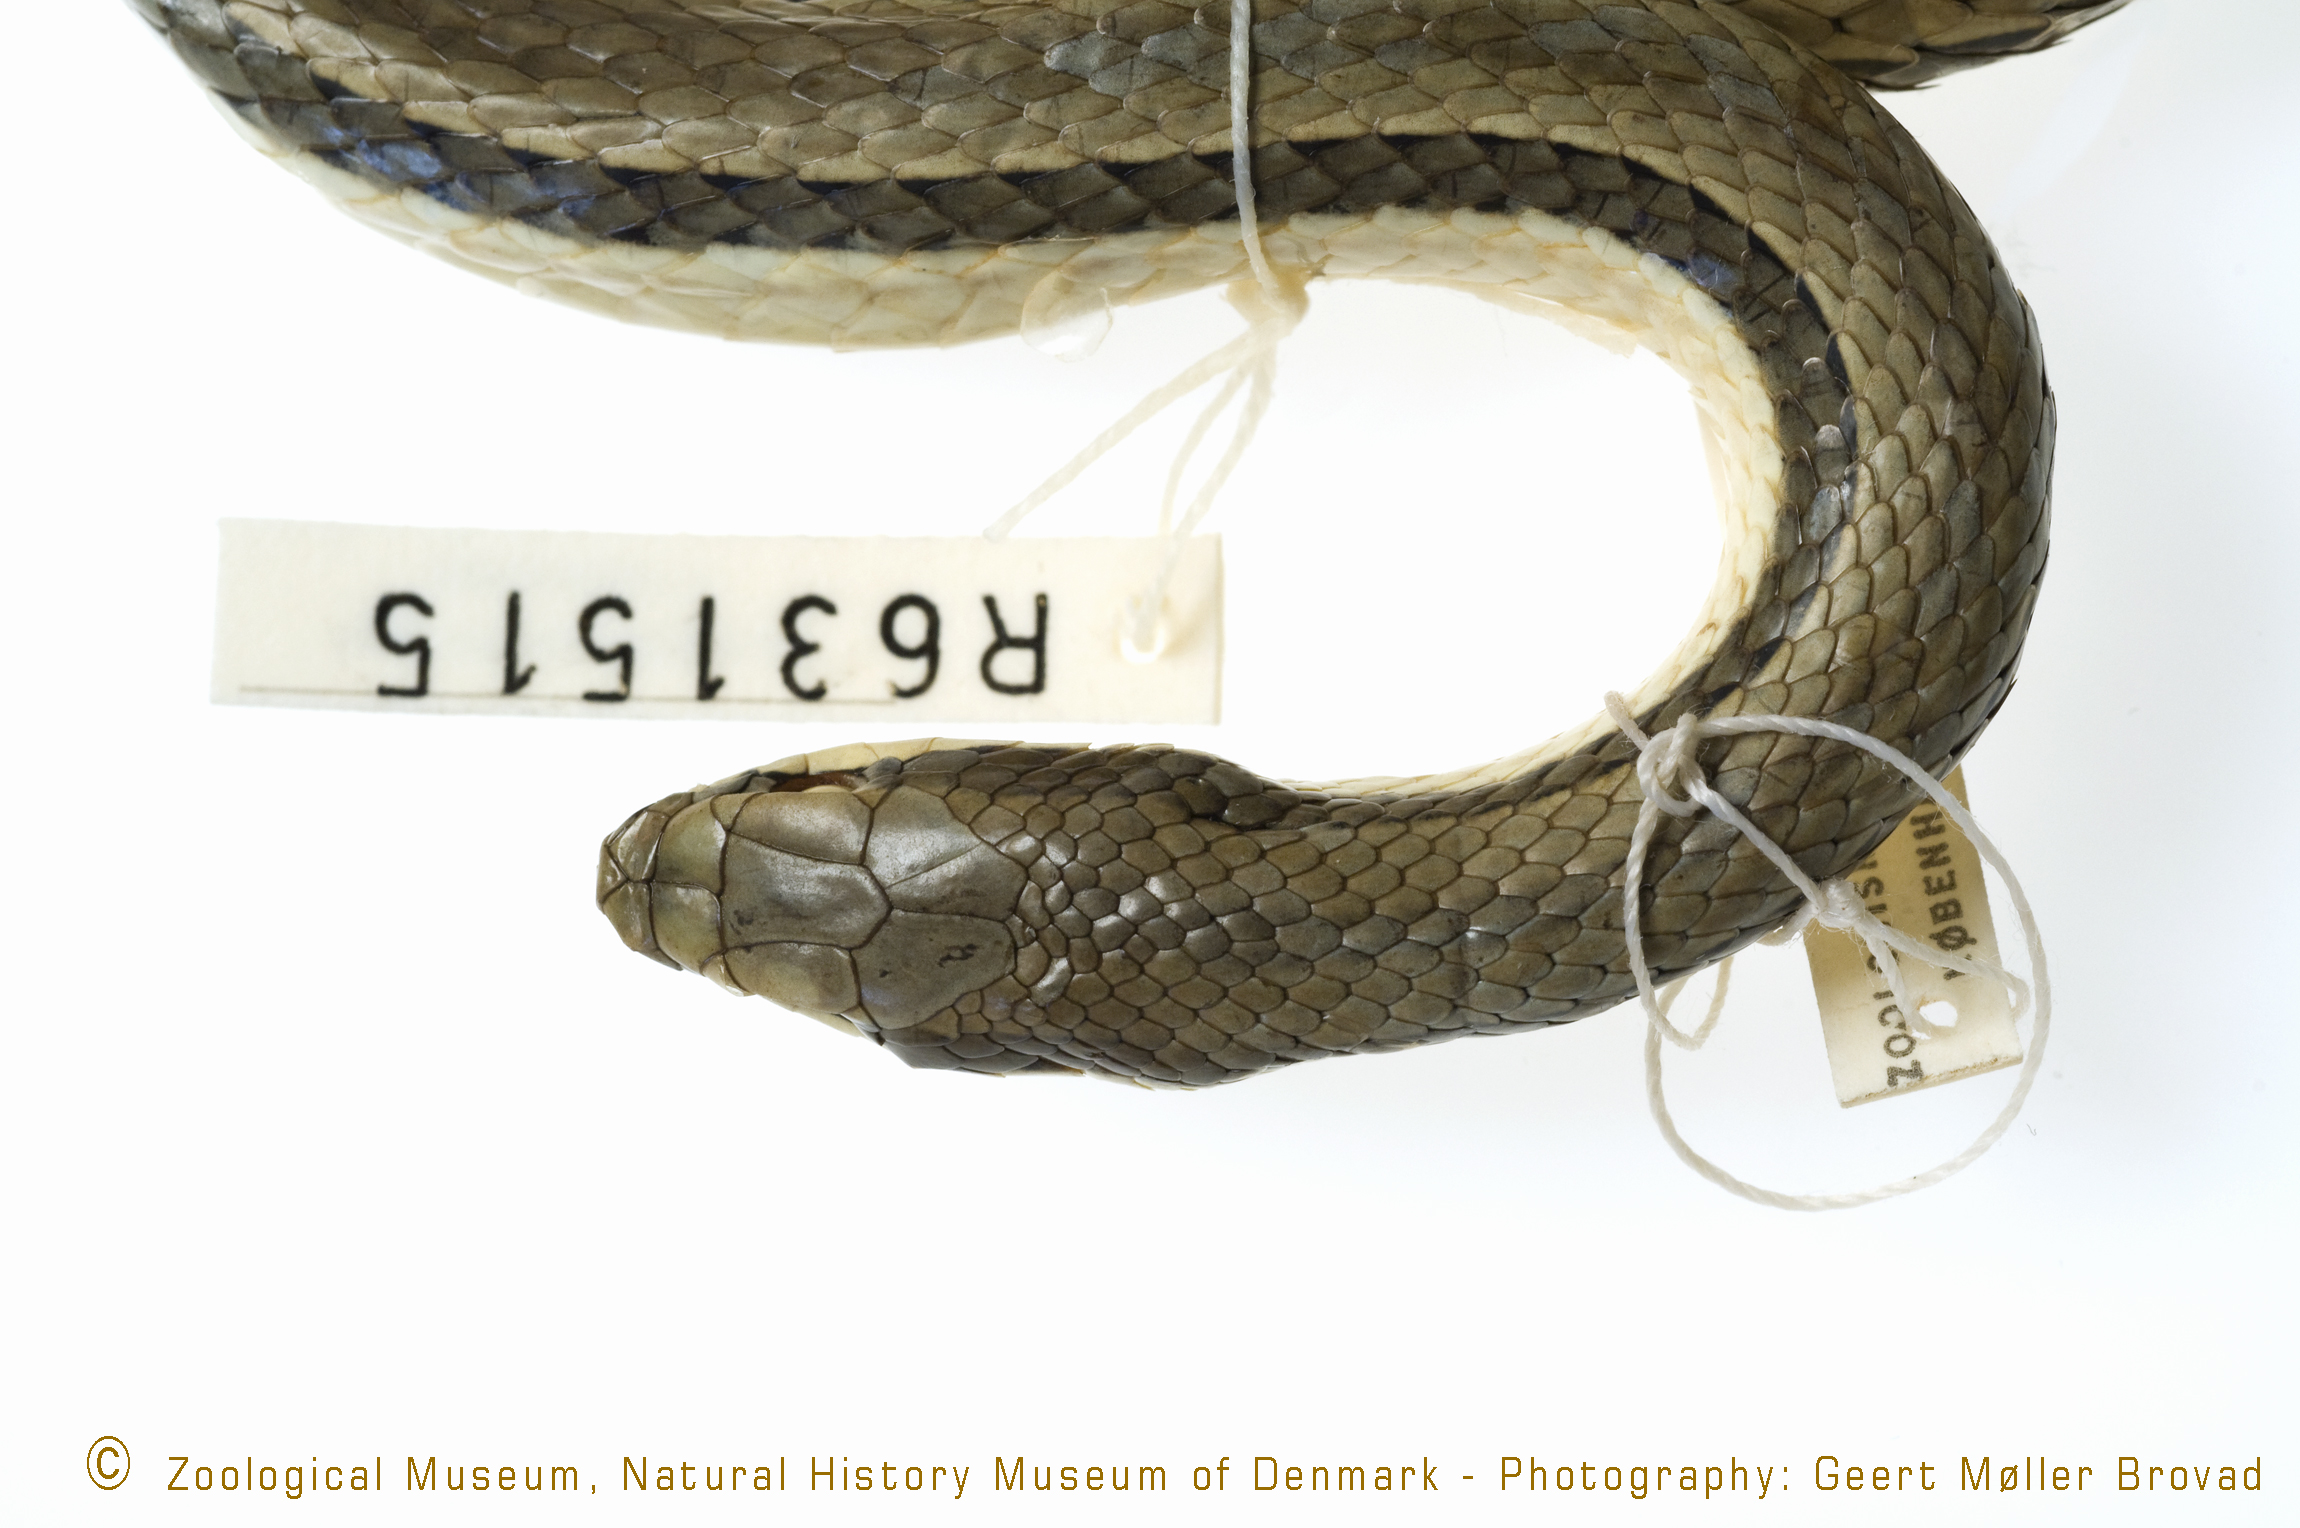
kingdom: Animalia
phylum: Chordata
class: Squamata
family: Psammophiidae
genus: Psammophylax
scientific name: Psammophylax variabilis
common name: Grey-bellied grass snake
